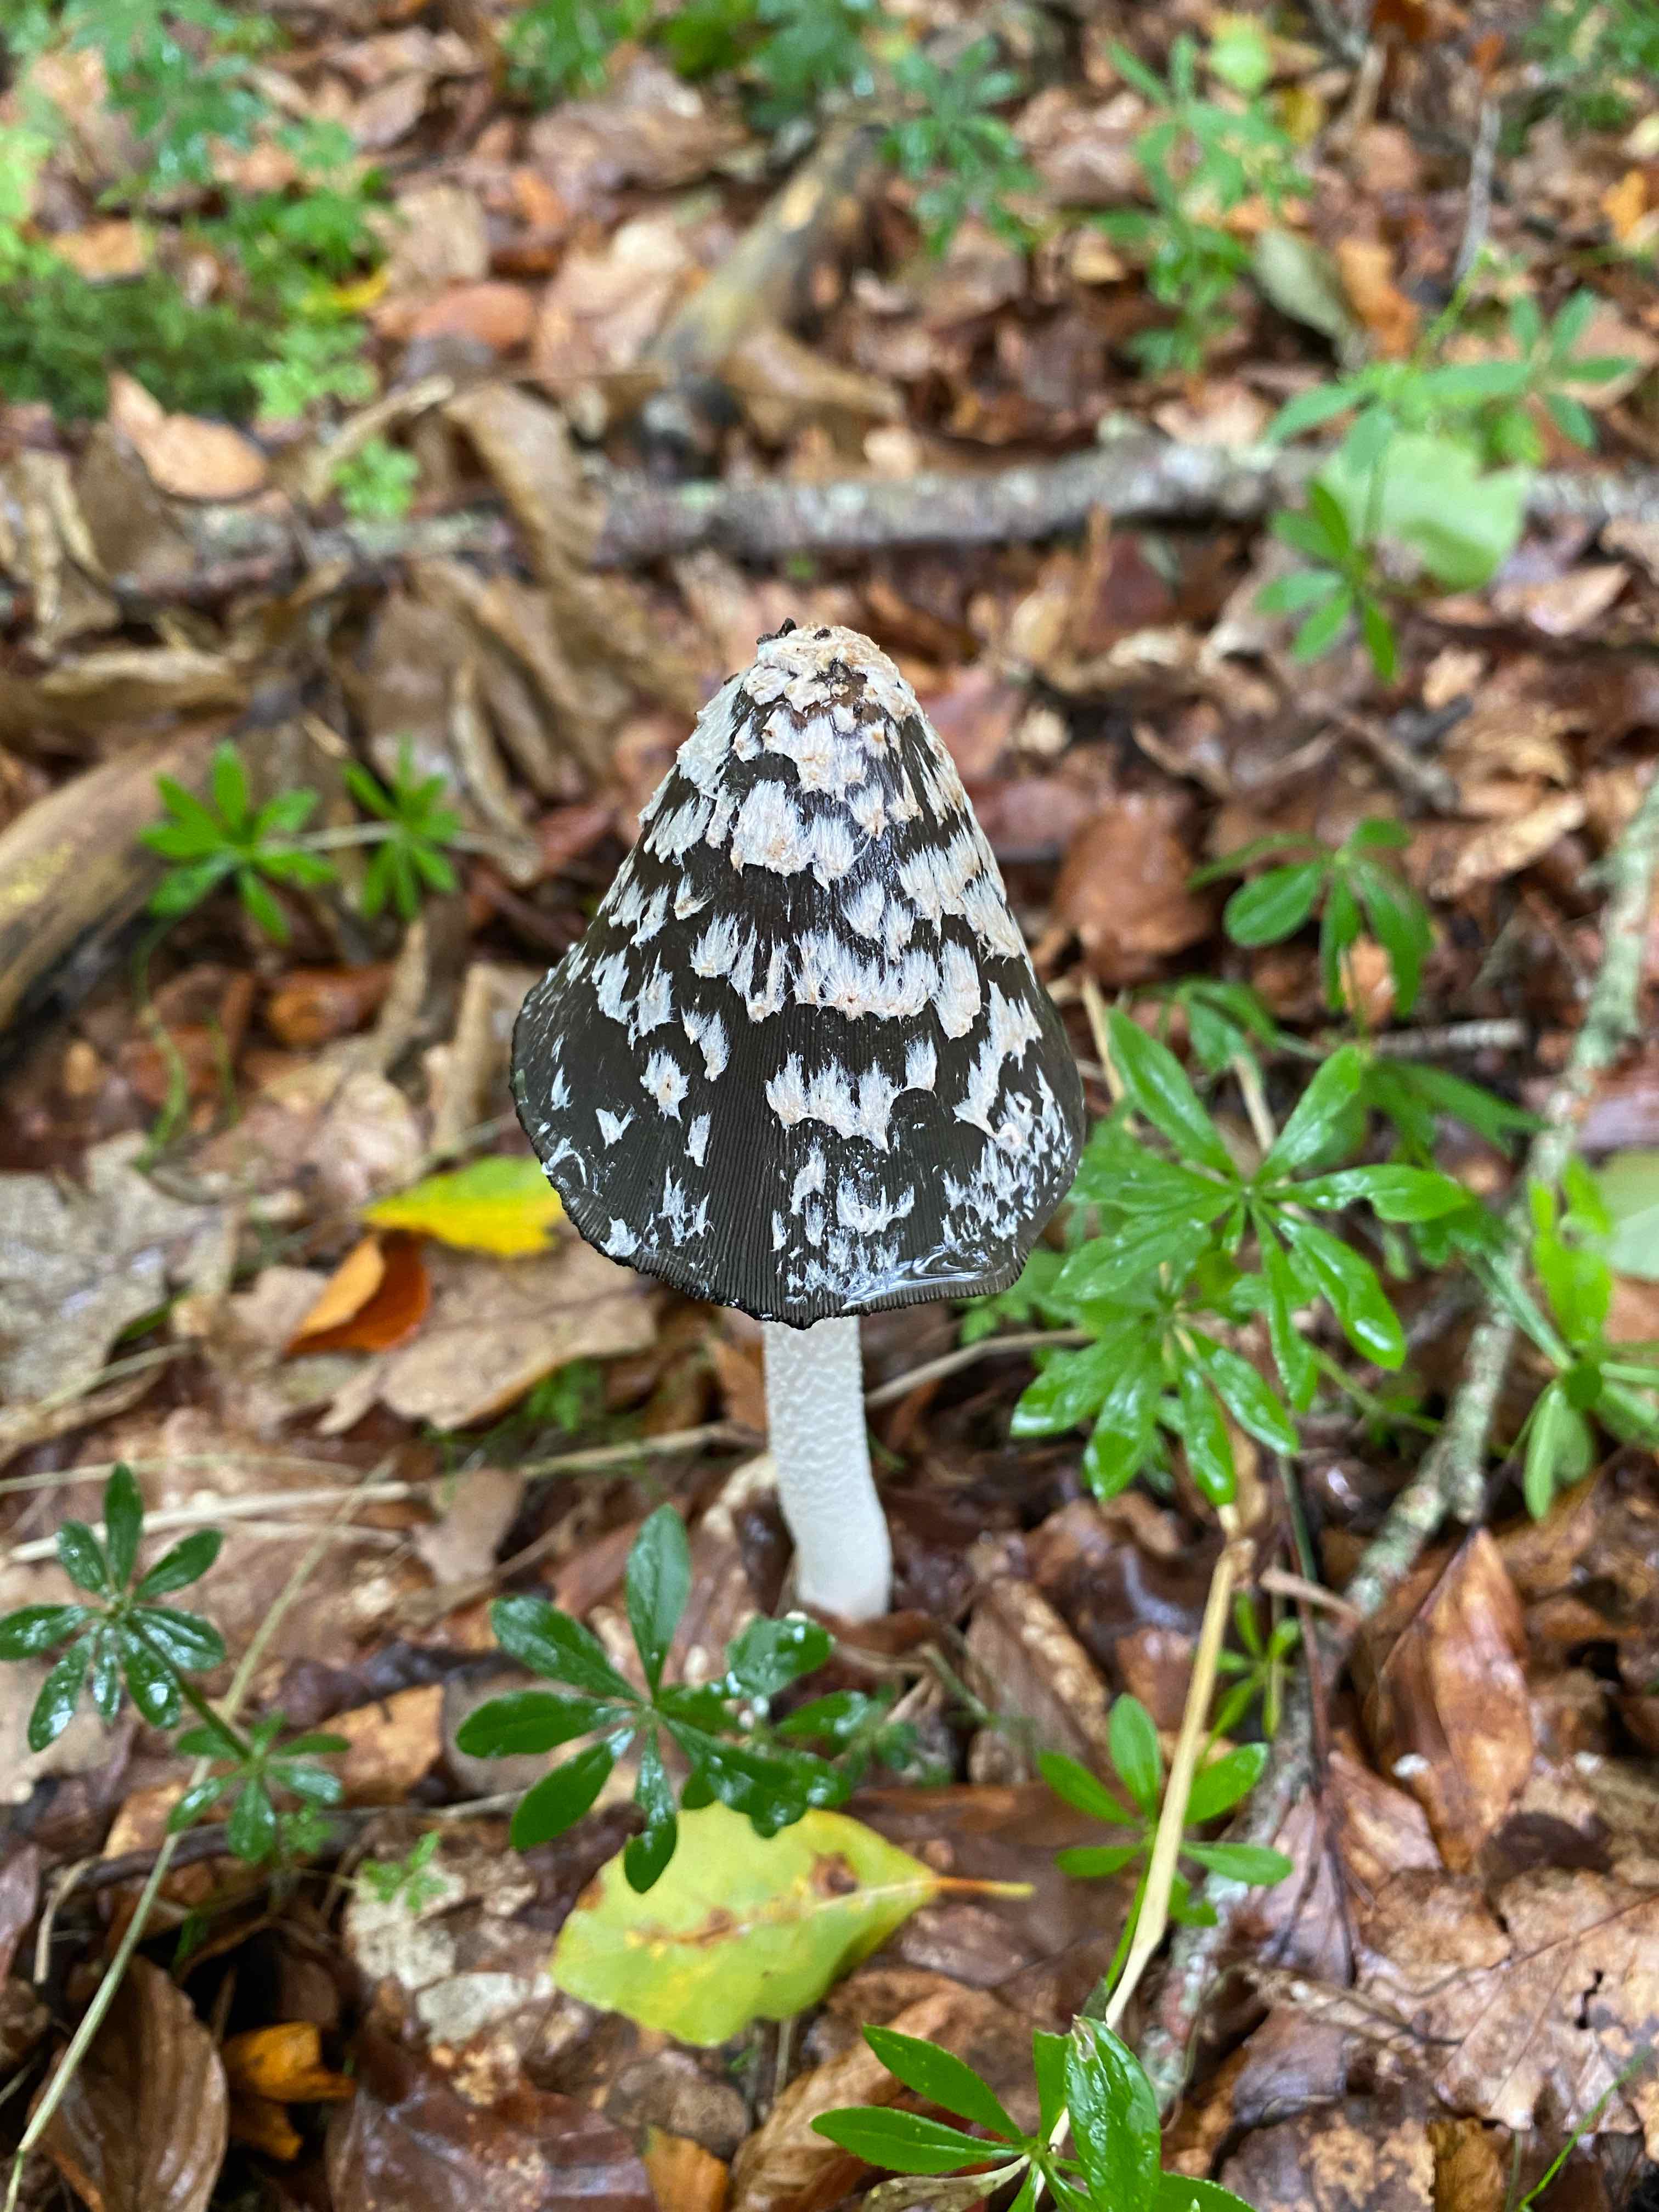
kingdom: Fungi
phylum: Basidiomycota
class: Agaricomycetes
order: Agaricales
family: Psathyrellaceae
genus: Coprinopsis
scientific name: Coprinopsis picacea
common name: skade-blækhat
